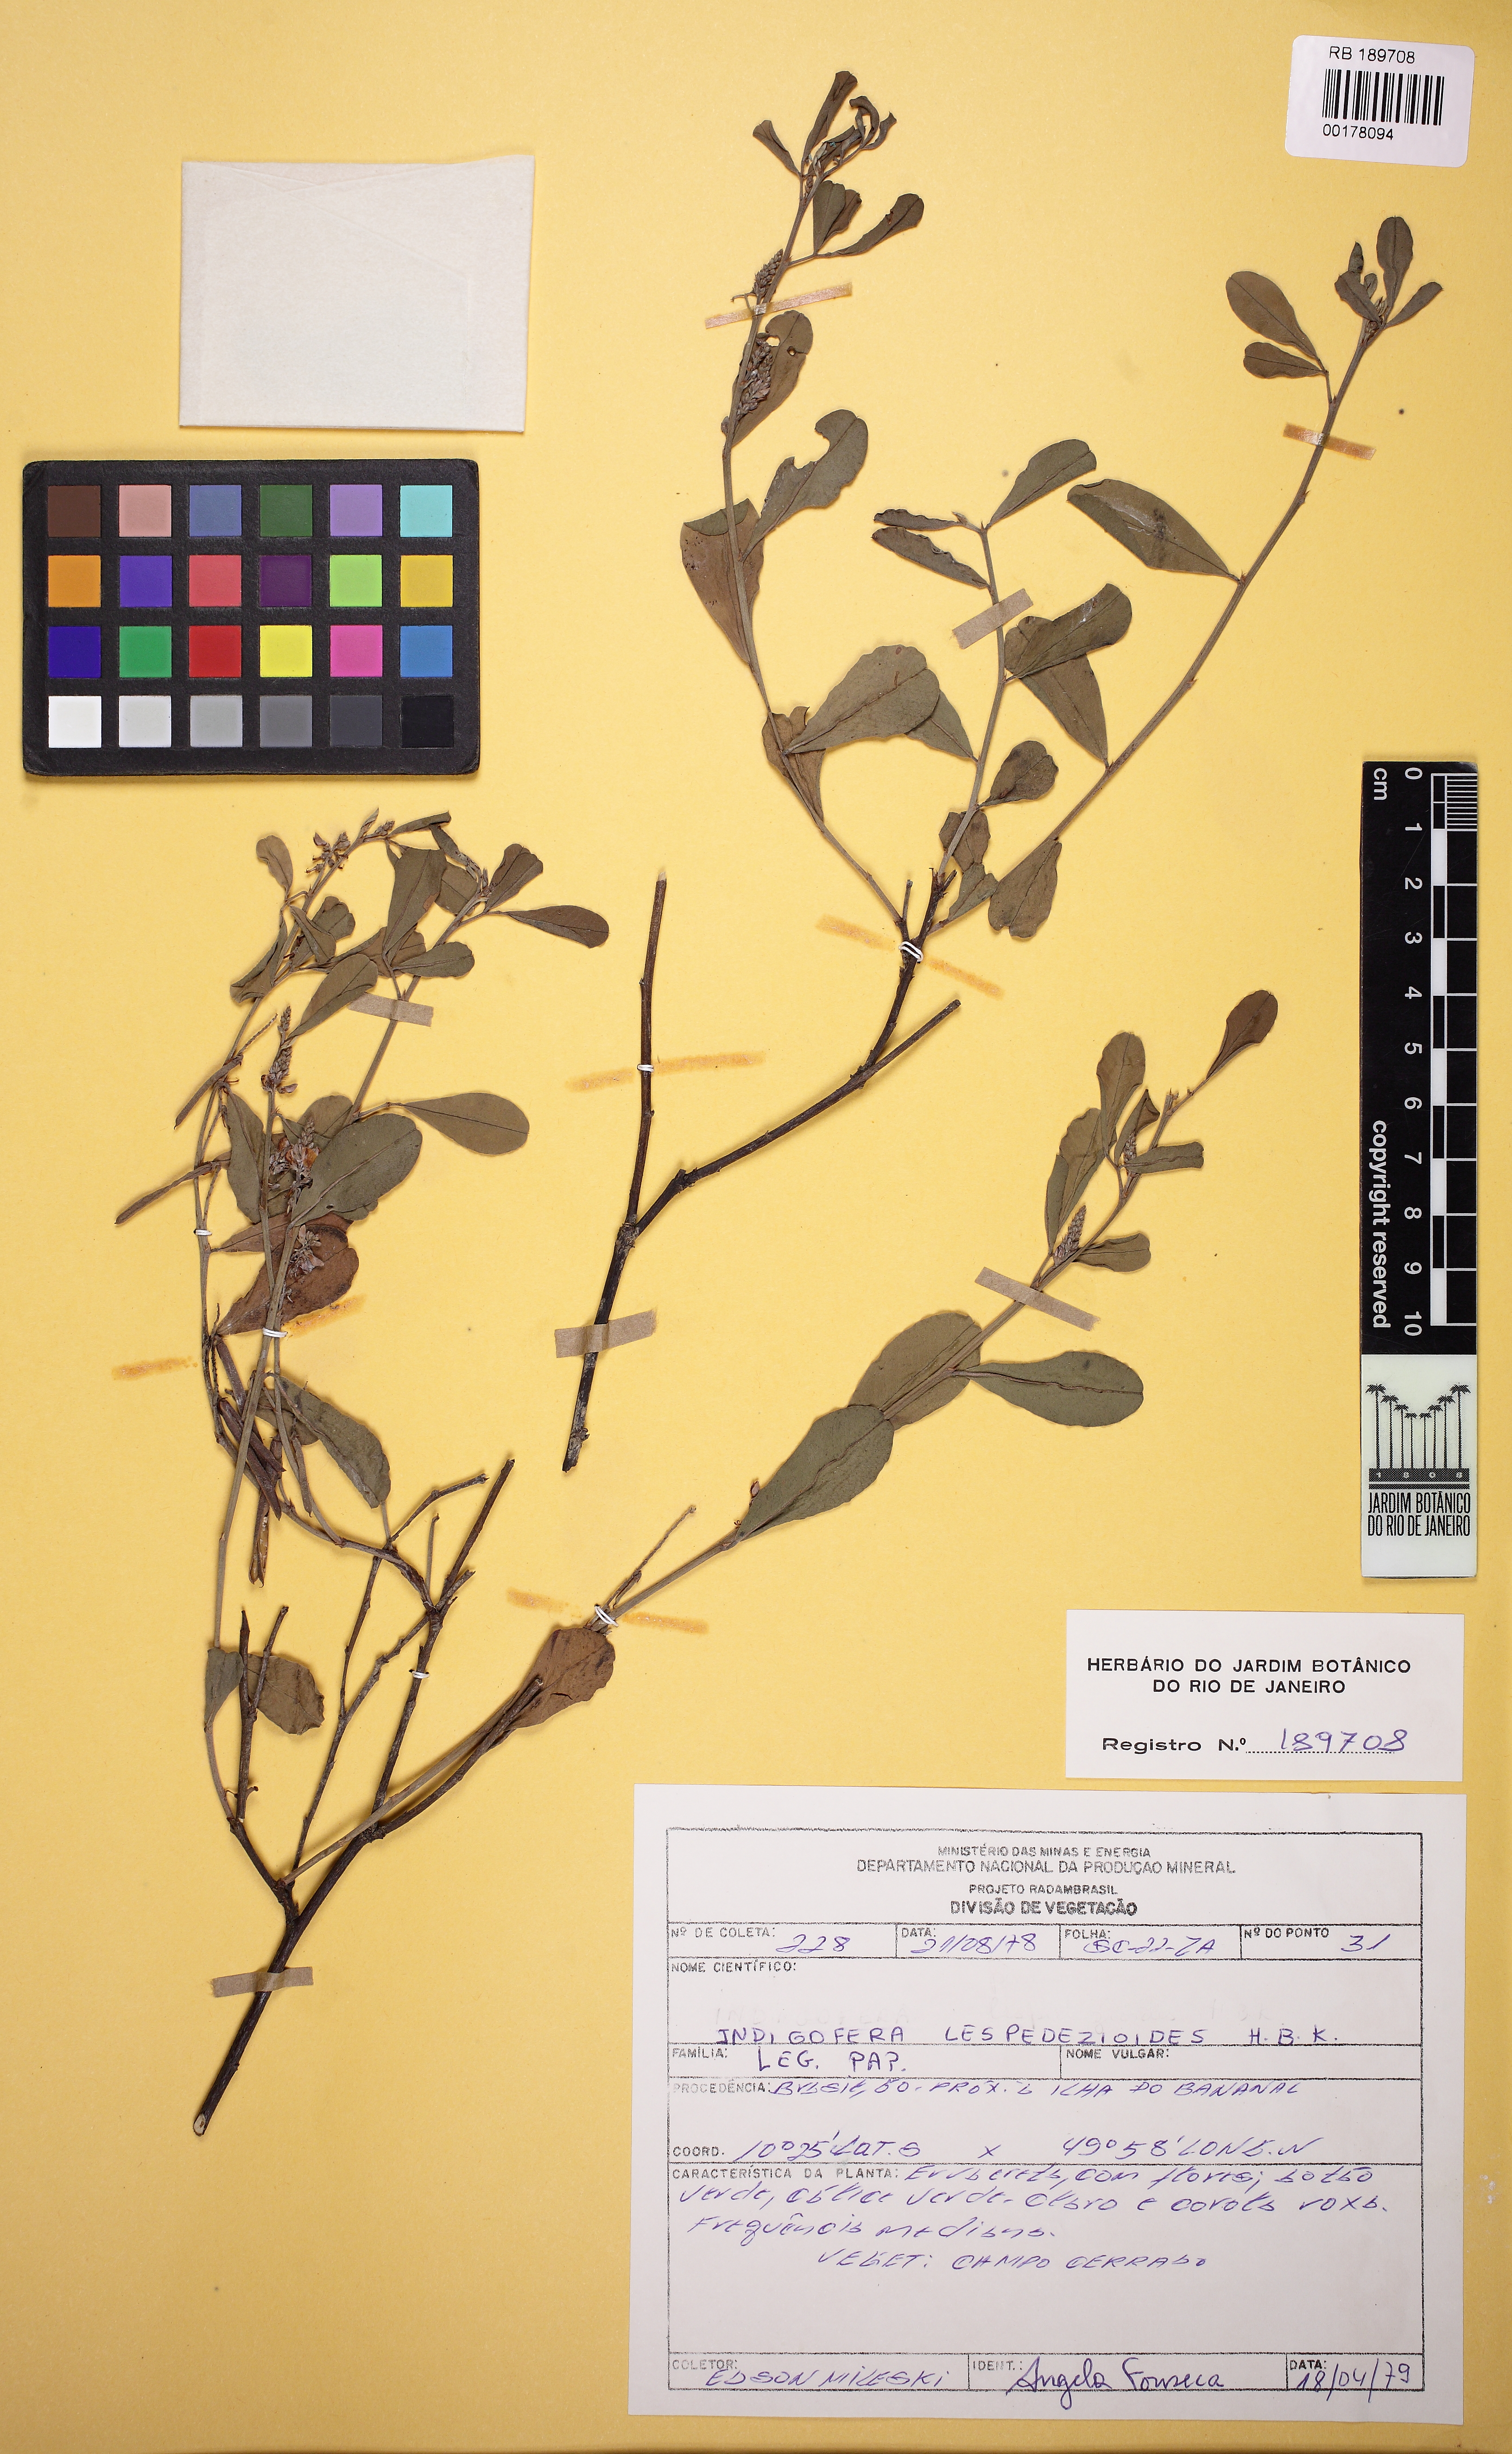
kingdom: Plantae
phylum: Tracheophyta
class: Magnoliopsida
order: Fabales
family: Fabaceae
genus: Indigofera
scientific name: Indigofera lespedezioides
